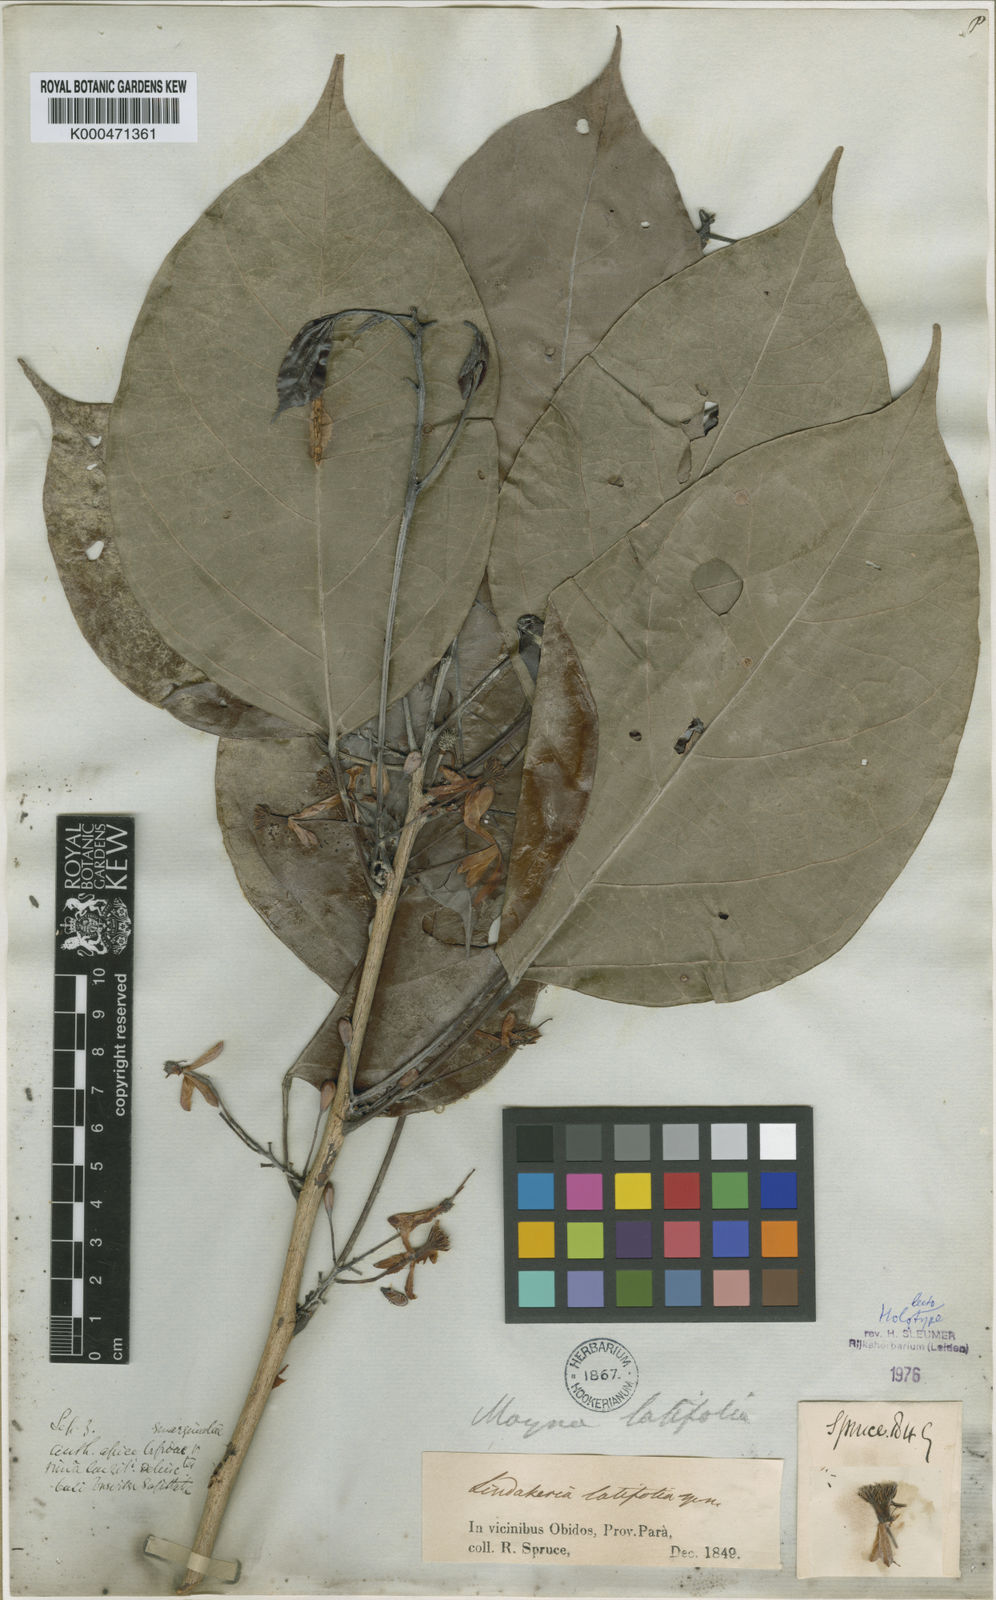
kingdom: Plantae
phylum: Tracheophyta
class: Magnoliopsida
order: Malpighiales
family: Achariaceae
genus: Lindackeria
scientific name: Lindackeria latifolia
